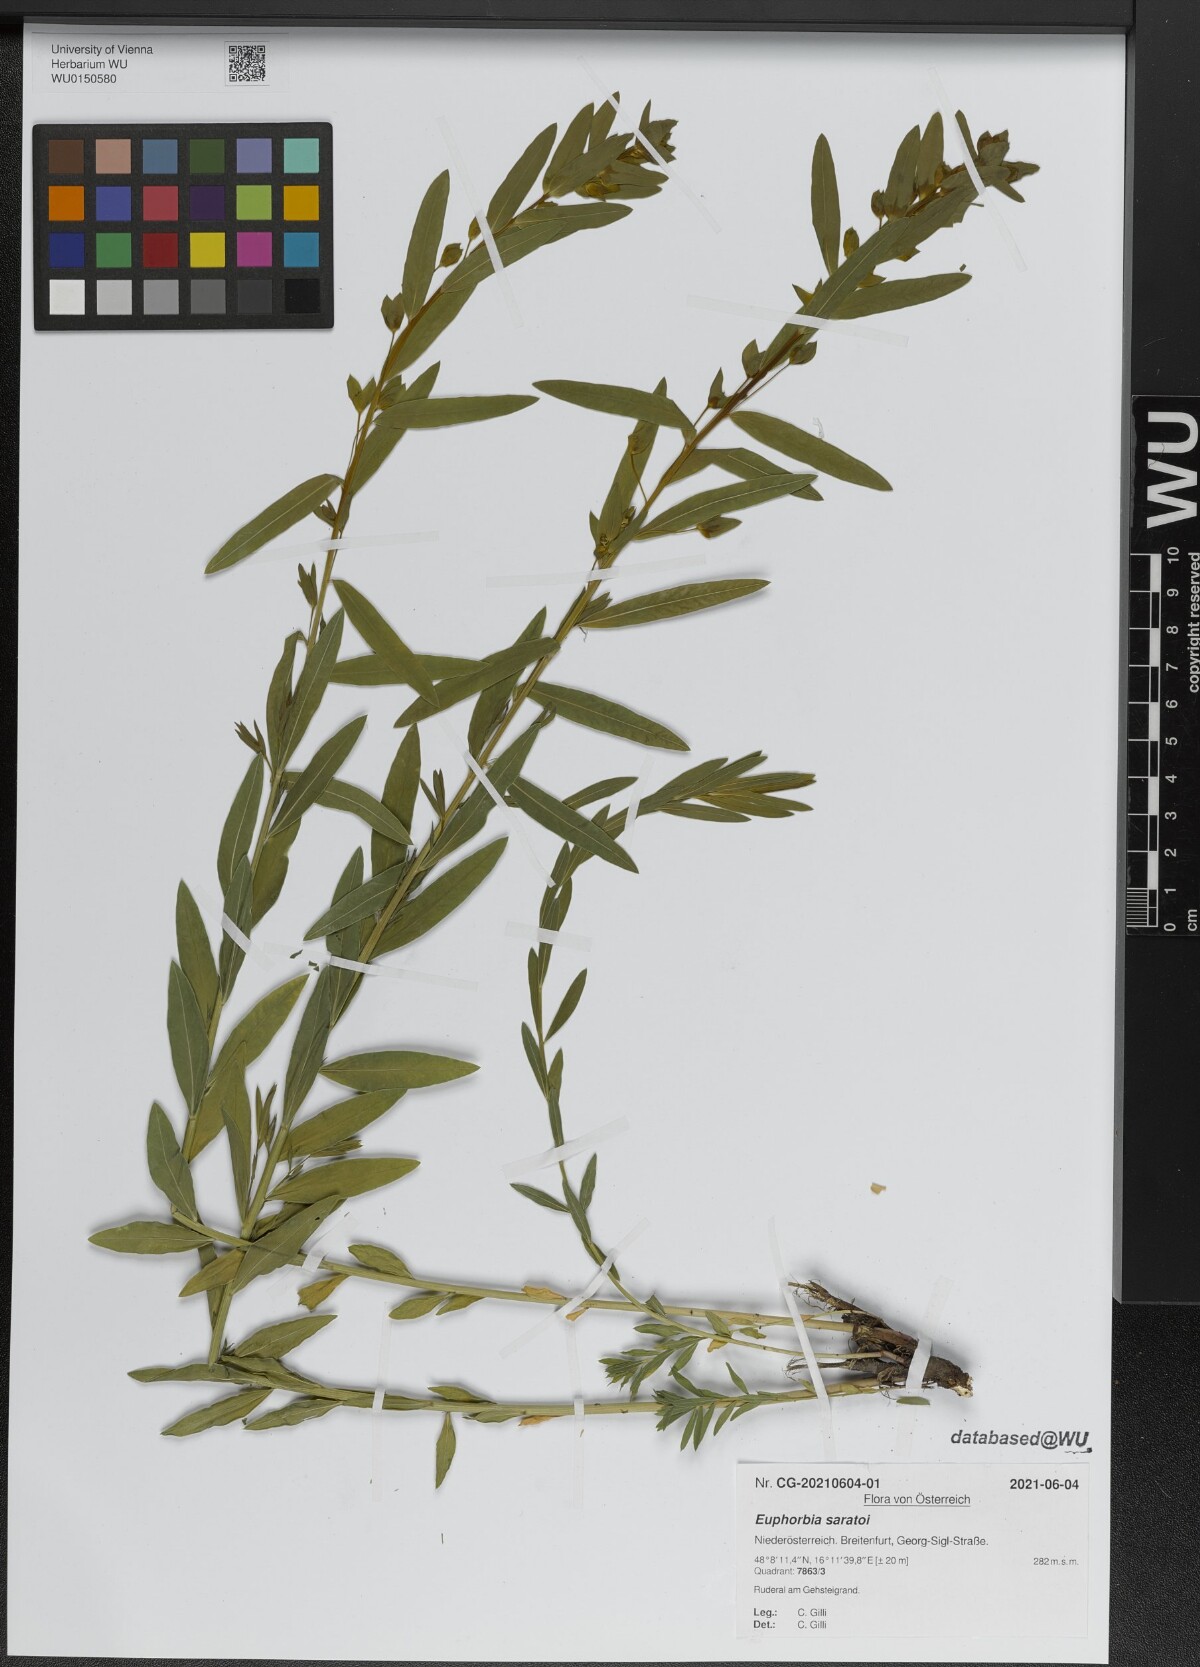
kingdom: Plantae
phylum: Tracheophyta
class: Magnoliopsida
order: Malpighiales
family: Euphorbiaceae
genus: Euphorbia
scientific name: Euphorbia virgata
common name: Leafy spurge
